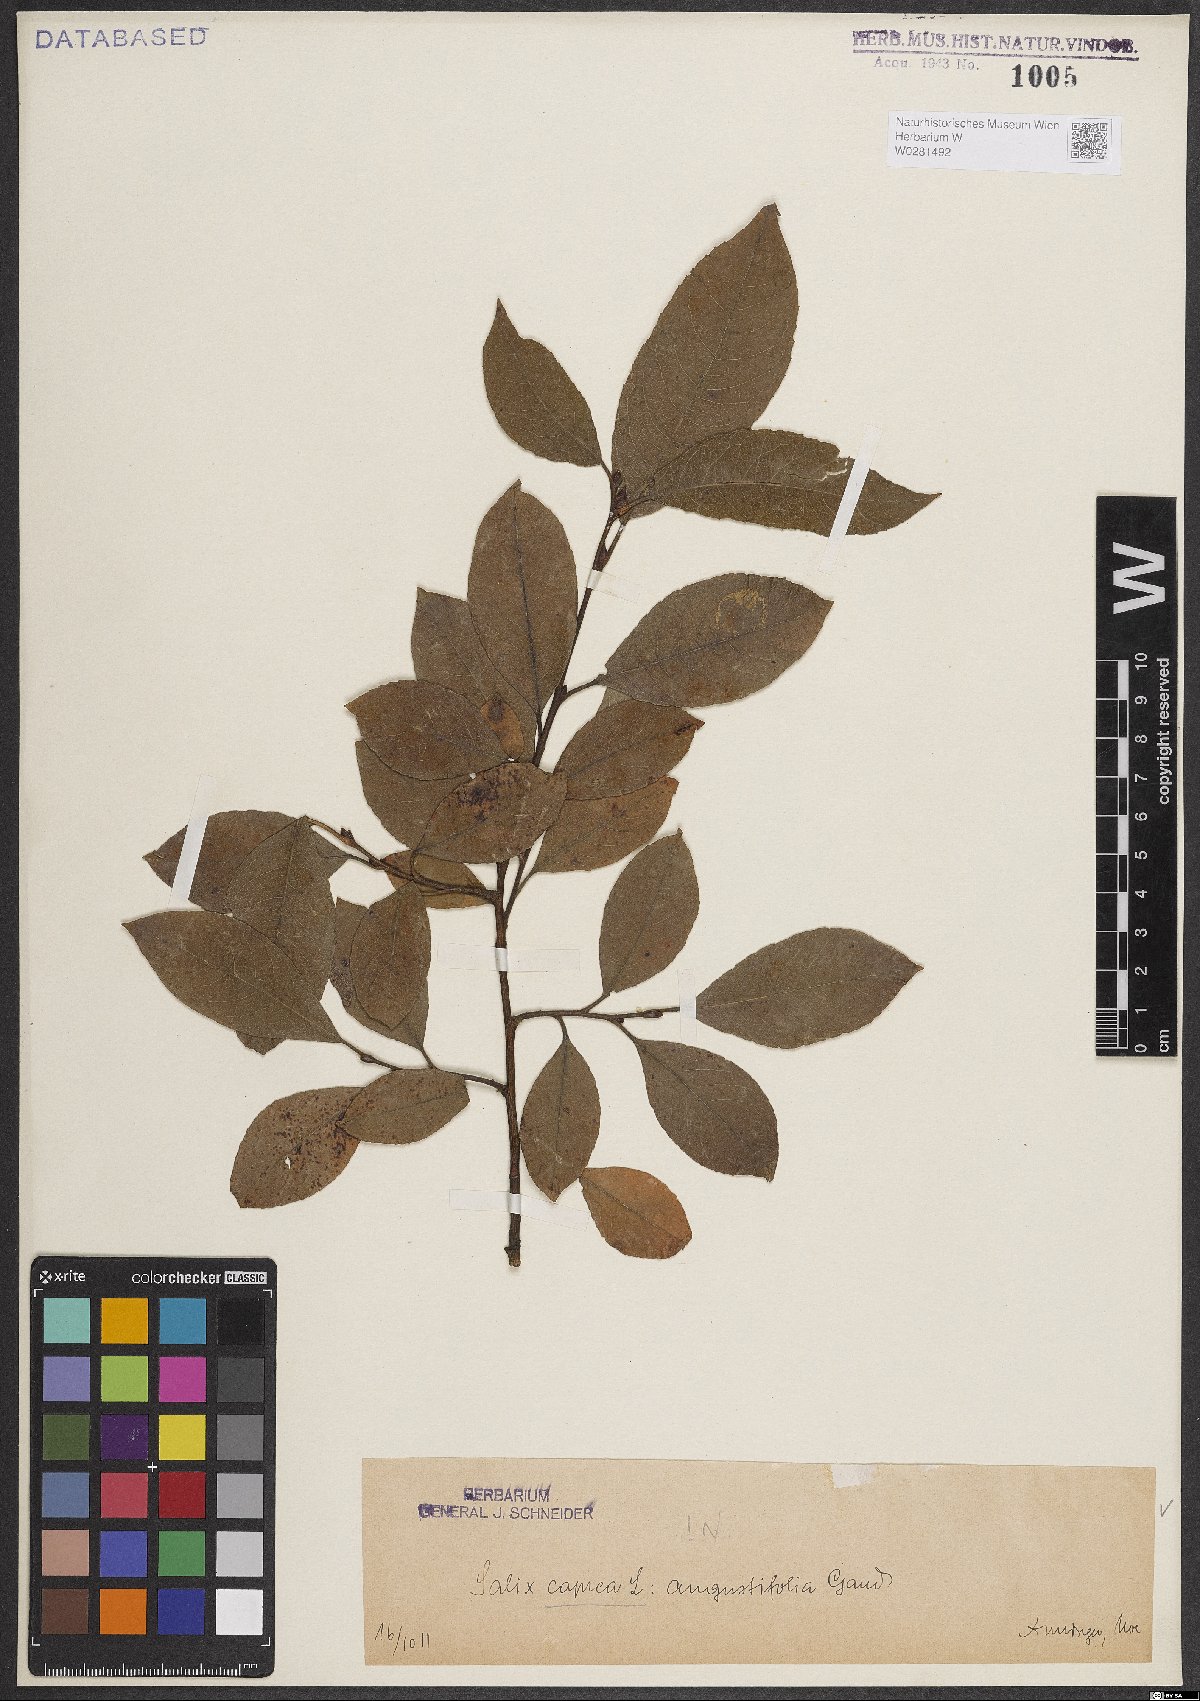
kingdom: Plantae
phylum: Tracheophyta
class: Magnoliopsida
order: Malpighiales
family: Salicaceae
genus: Salix
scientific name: Salix caprea
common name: Goat willow
